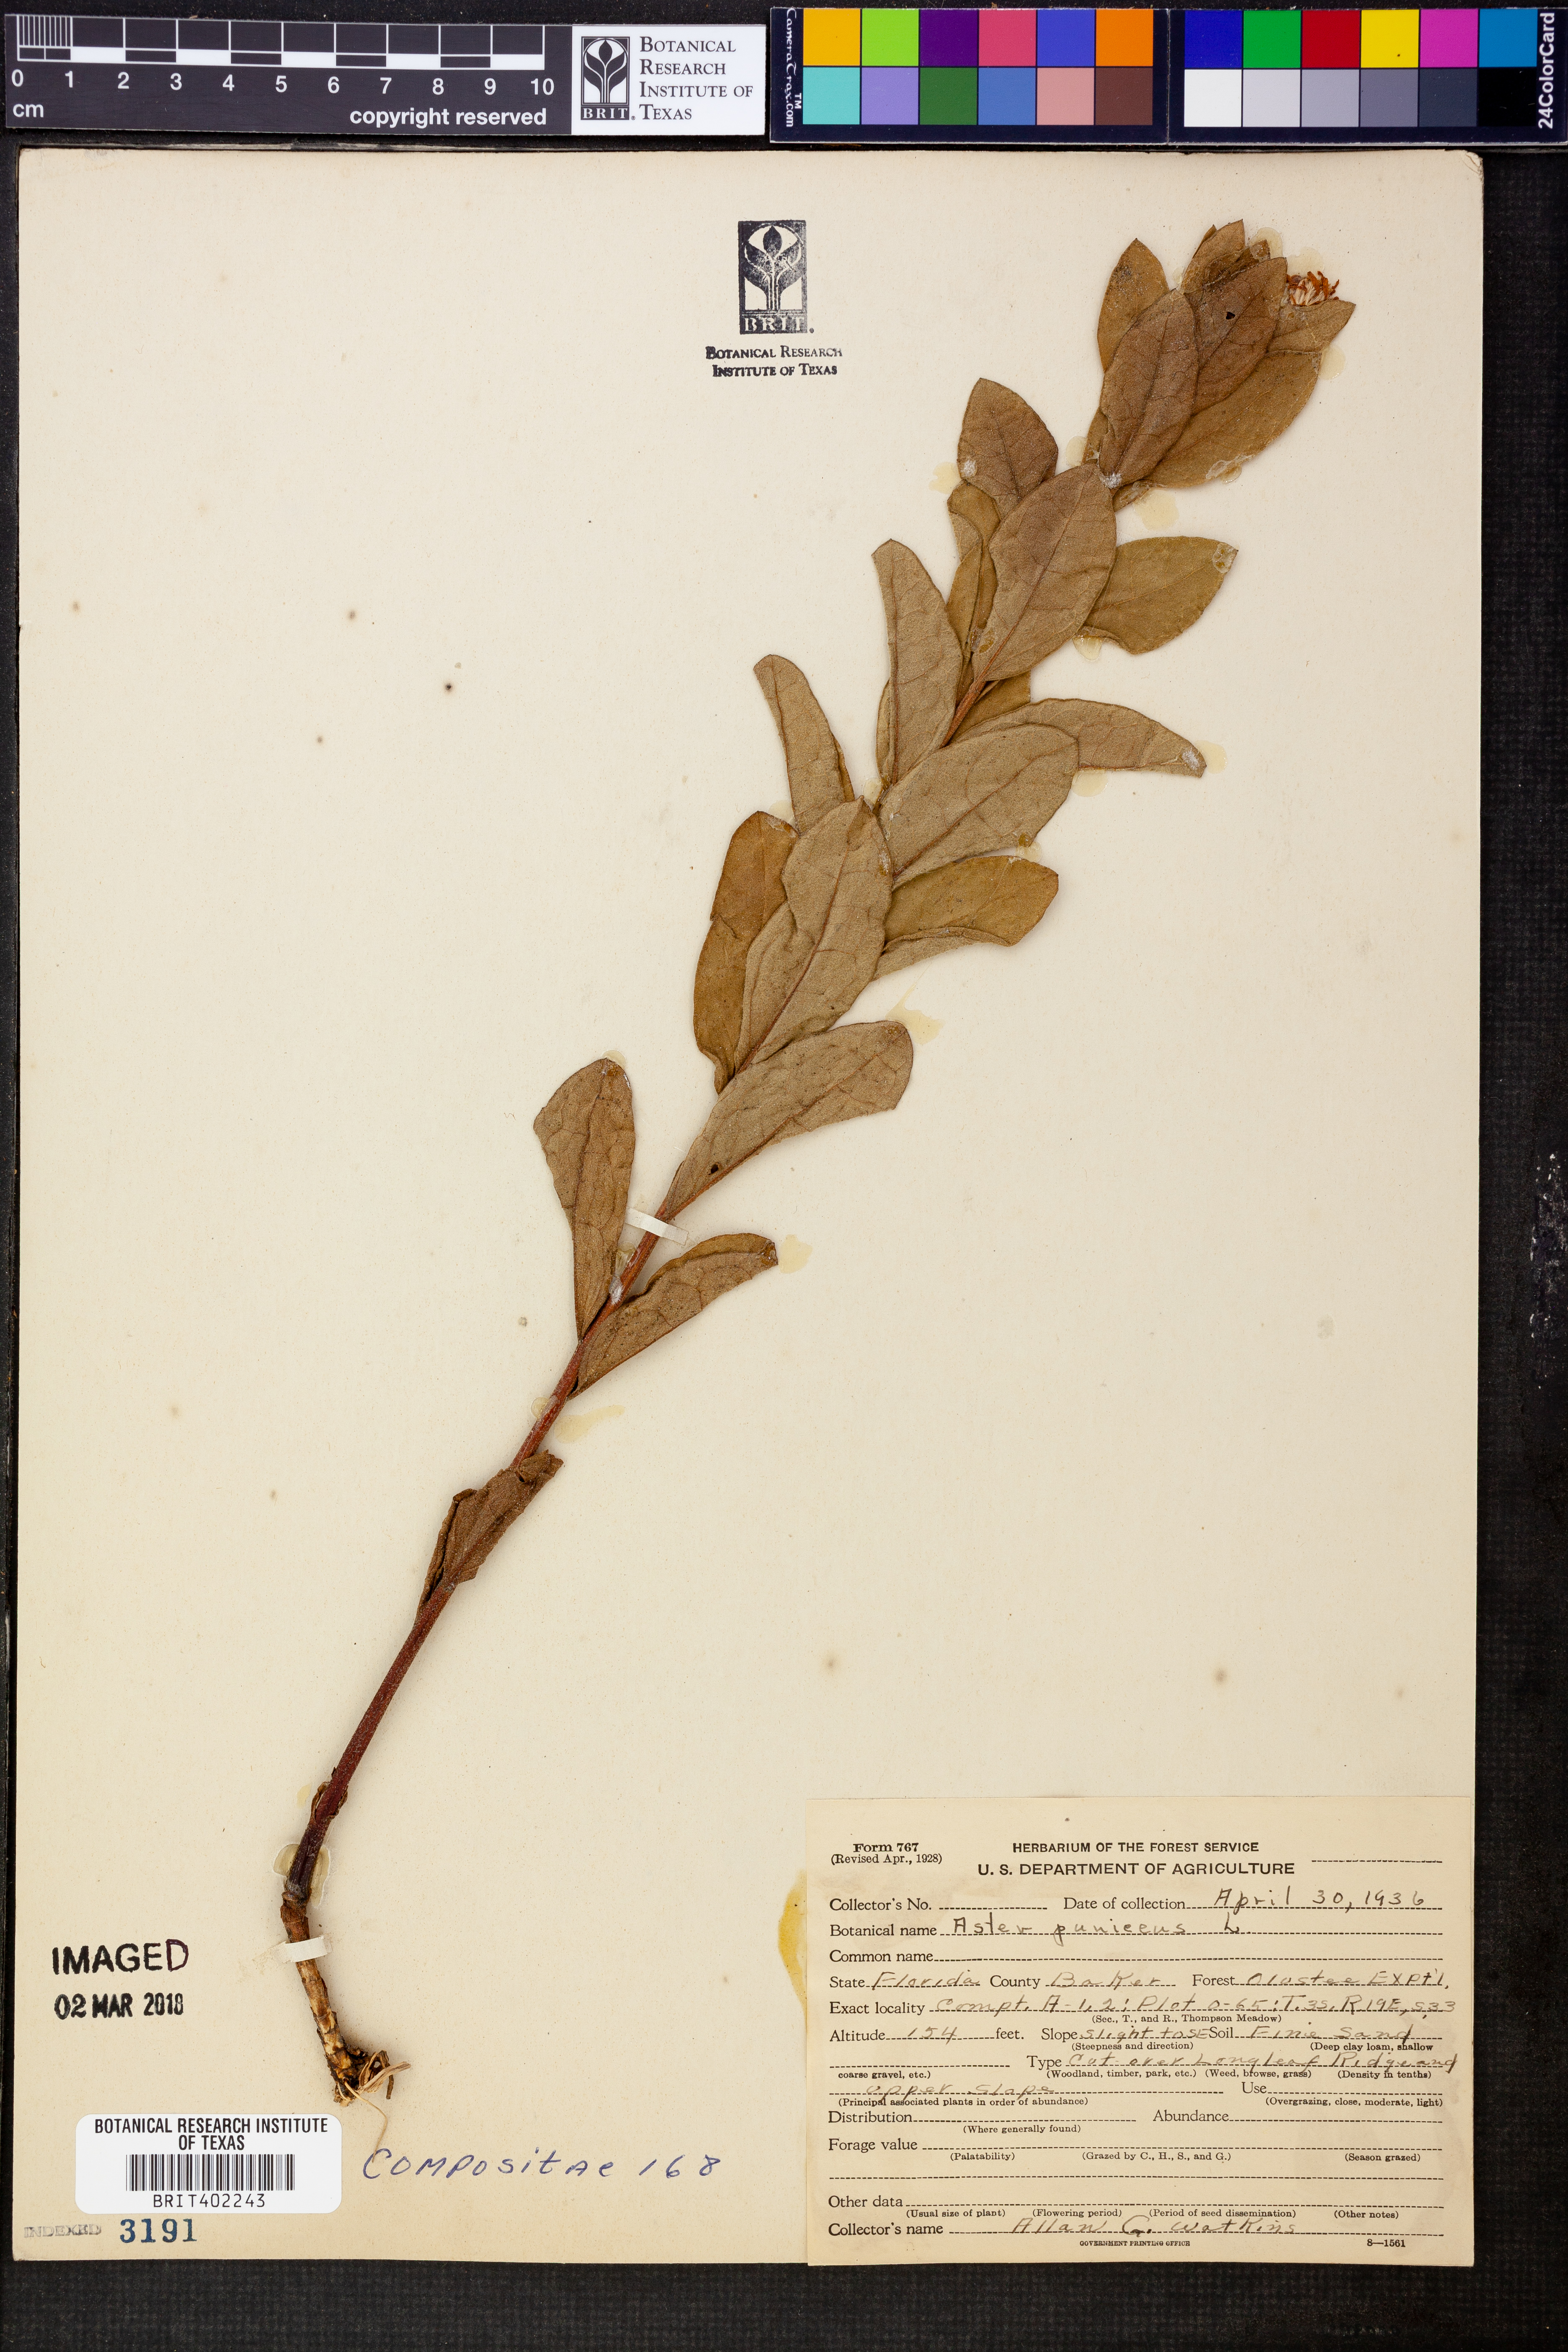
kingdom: Plantae
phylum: Tracheophyta
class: Magnoliopsida
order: Asterales
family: Asteraceae
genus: Symphyotrichum
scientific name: Symphyotrichum puniceum
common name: Bog aster
